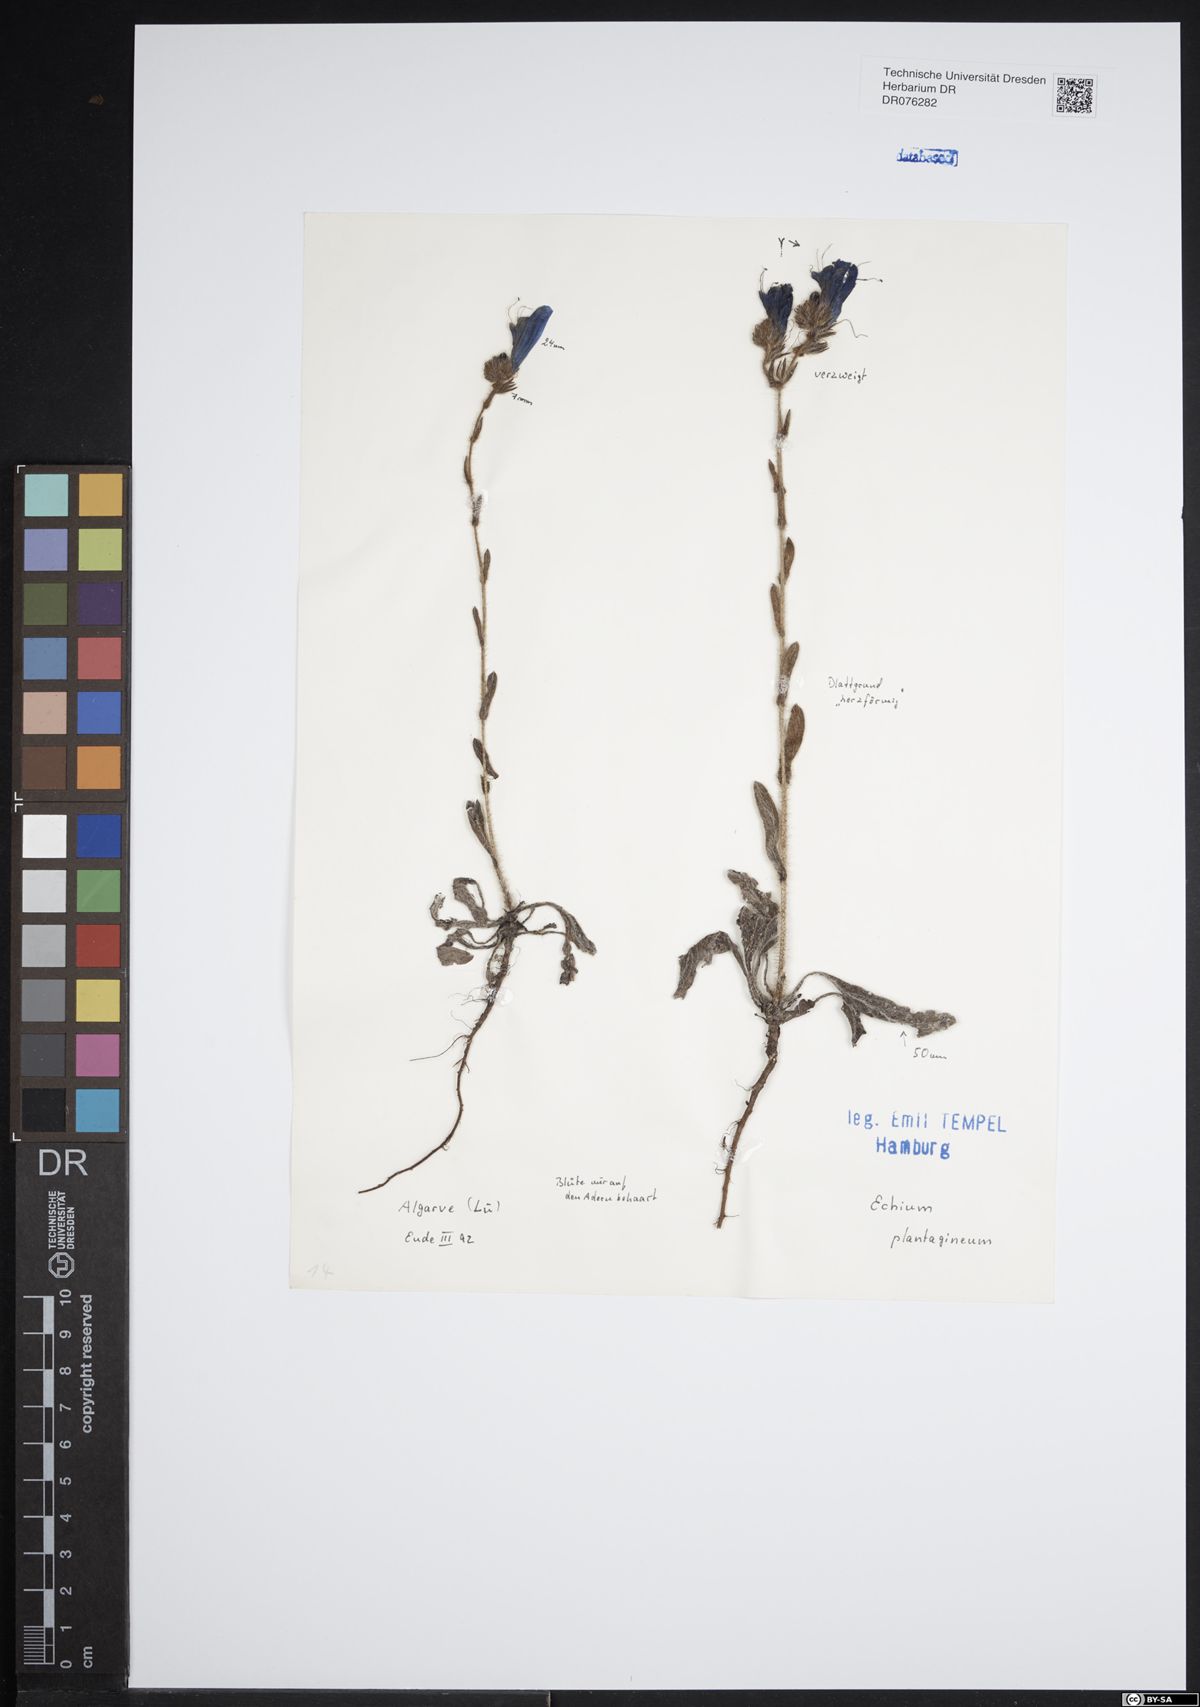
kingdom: Plantae
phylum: Tracheophyta
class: Magnoliopsida
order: Boraginales
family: Boraginaceae
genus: Echium
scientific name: Echium plantagineum
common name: Purple viper's-bugloss
